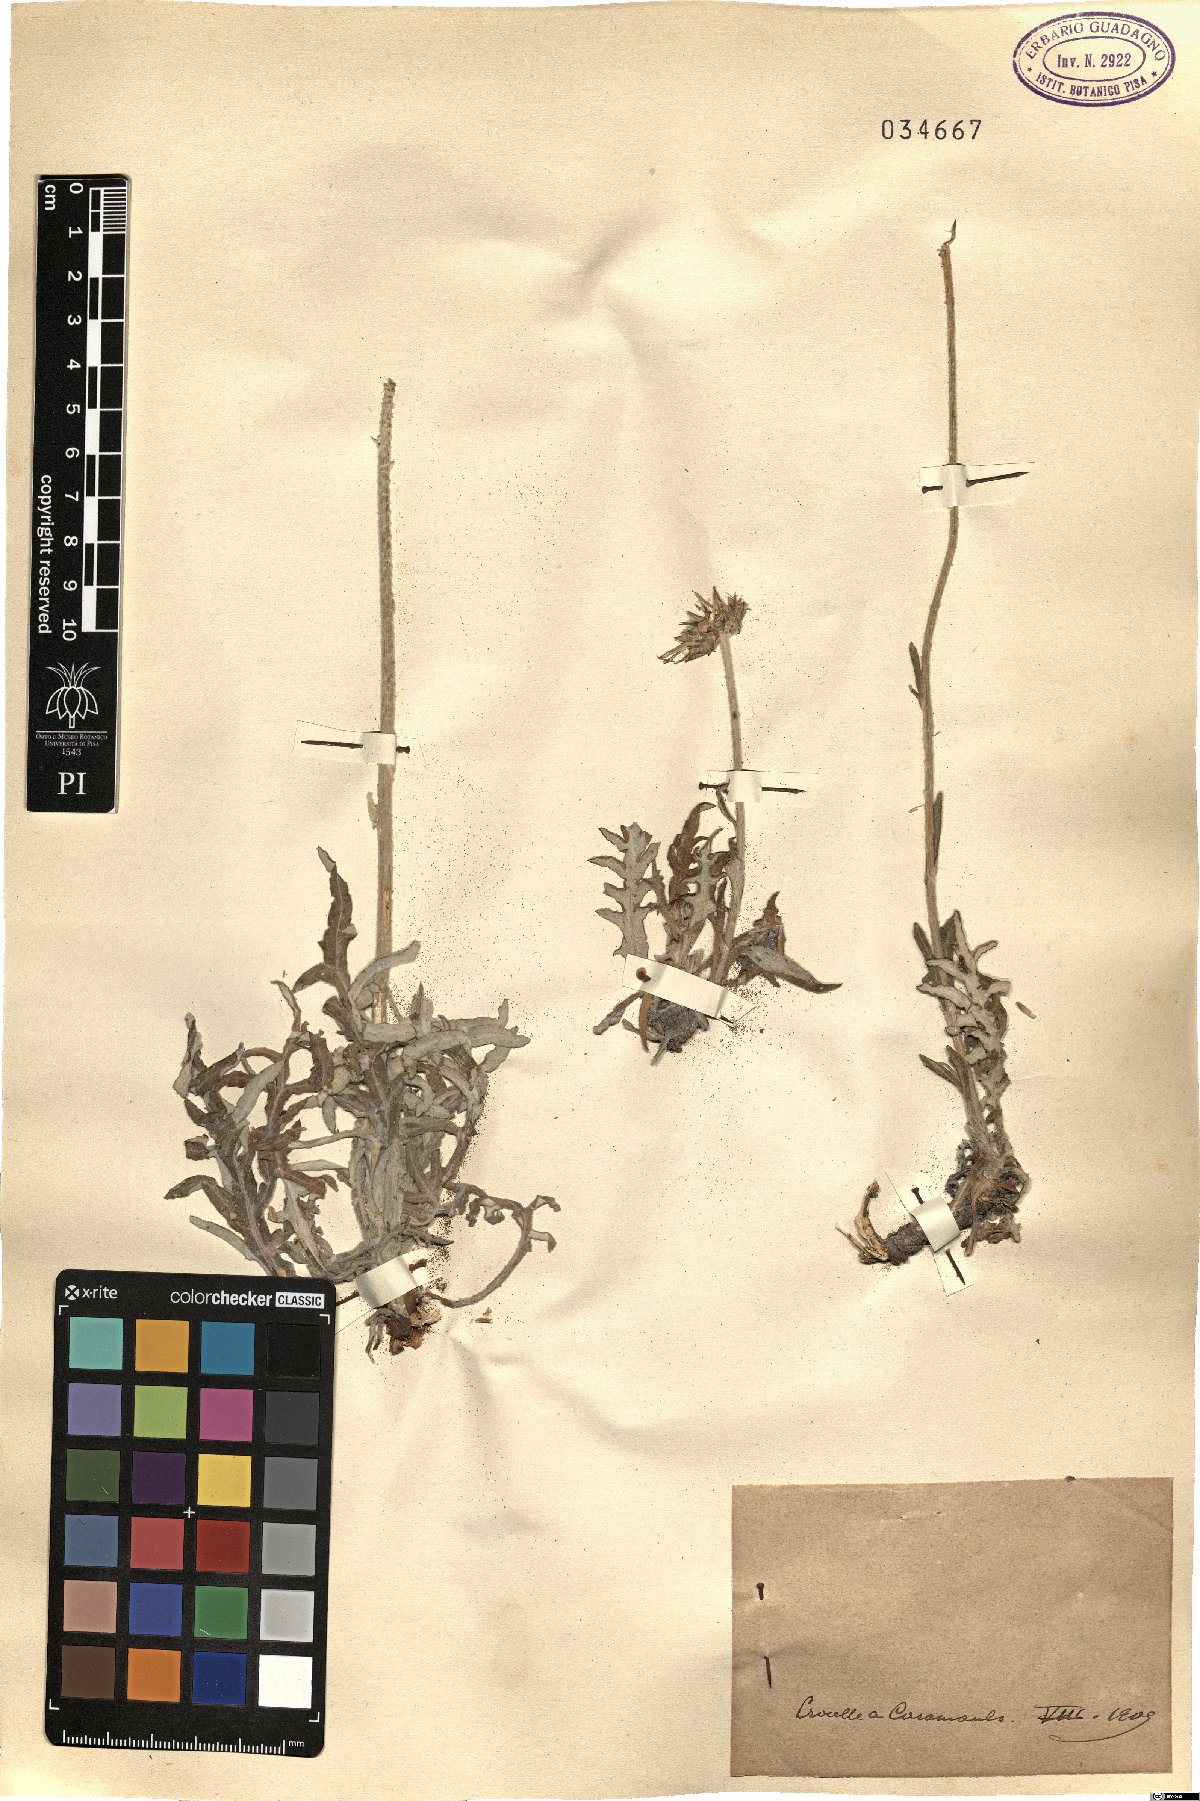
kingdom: Plantae
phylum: Tracheophyta
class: Magnoliopsida
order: Asterales
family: Asteraceae
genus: Jurinea
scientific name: Jurinea
